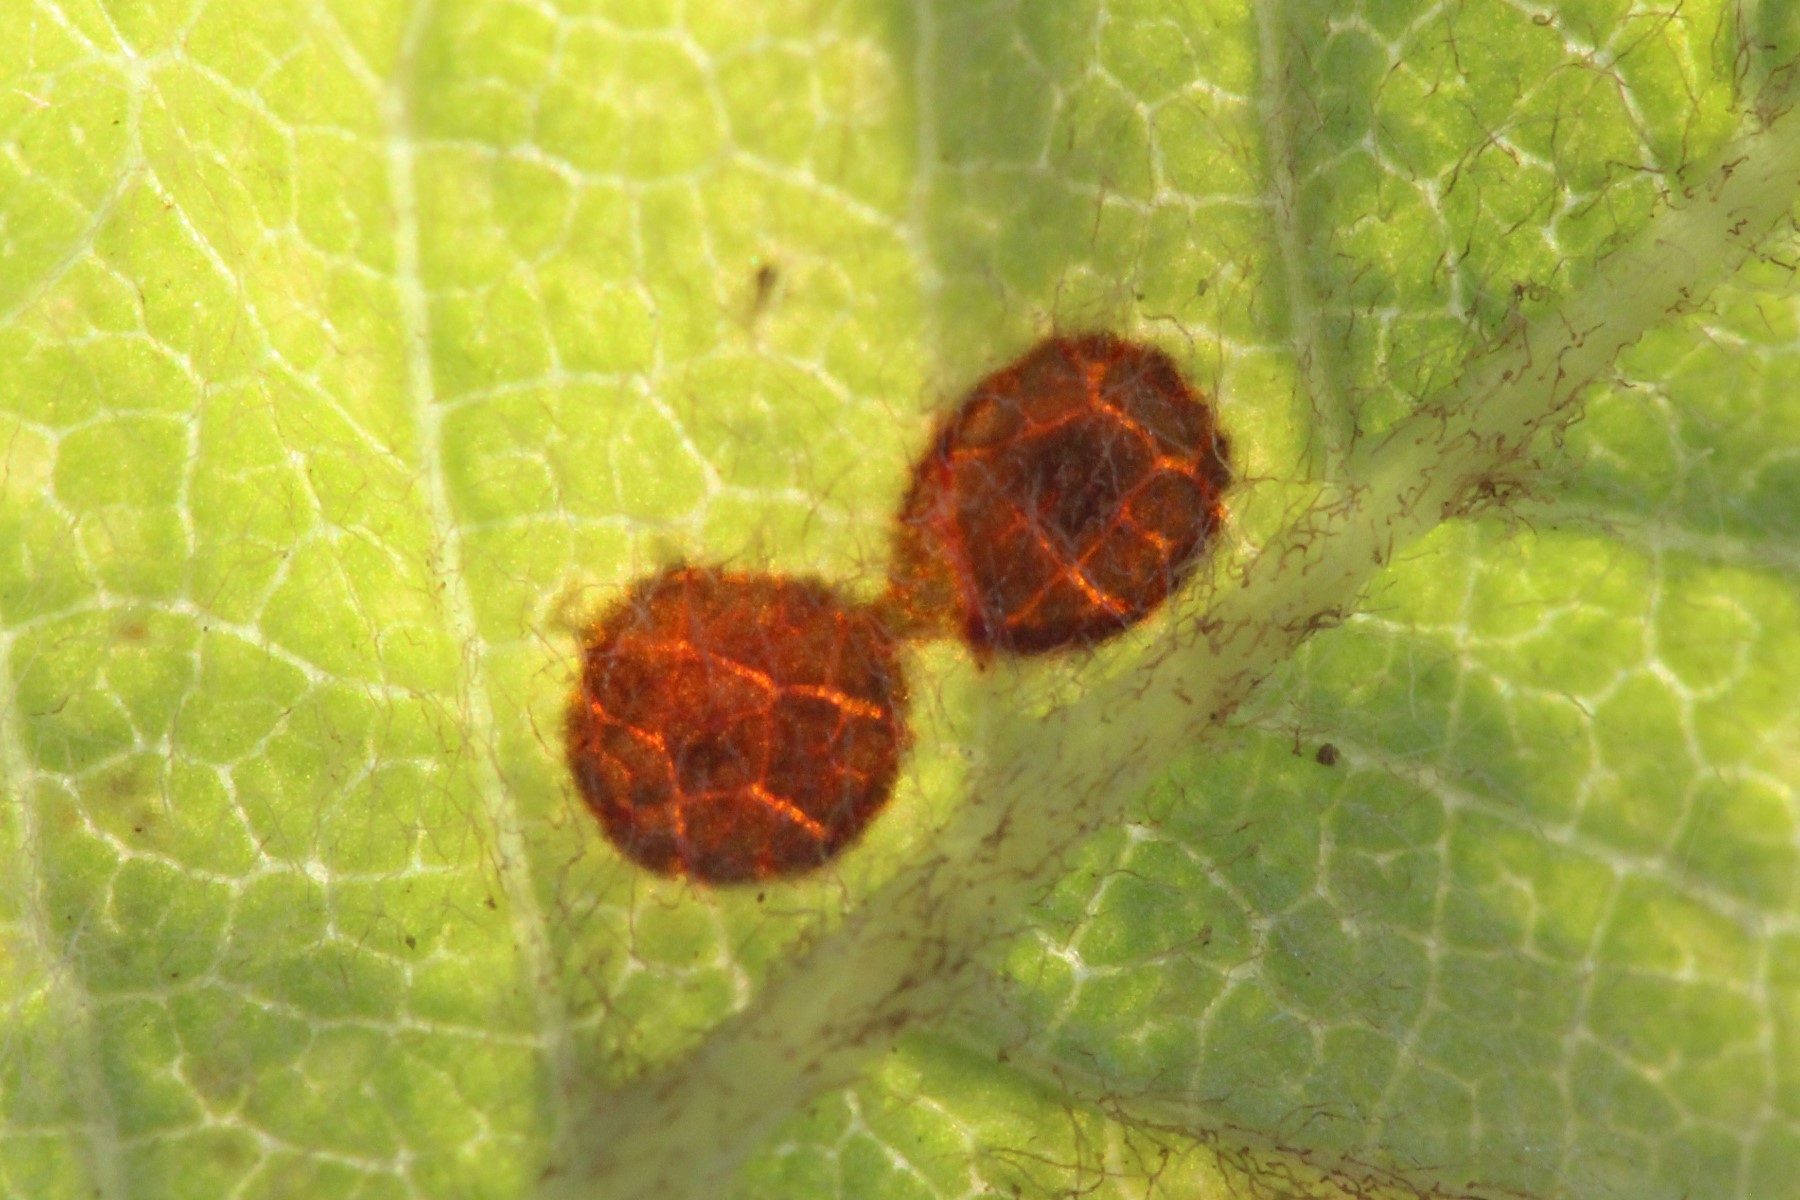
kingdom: Fungi
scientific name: Fungi
